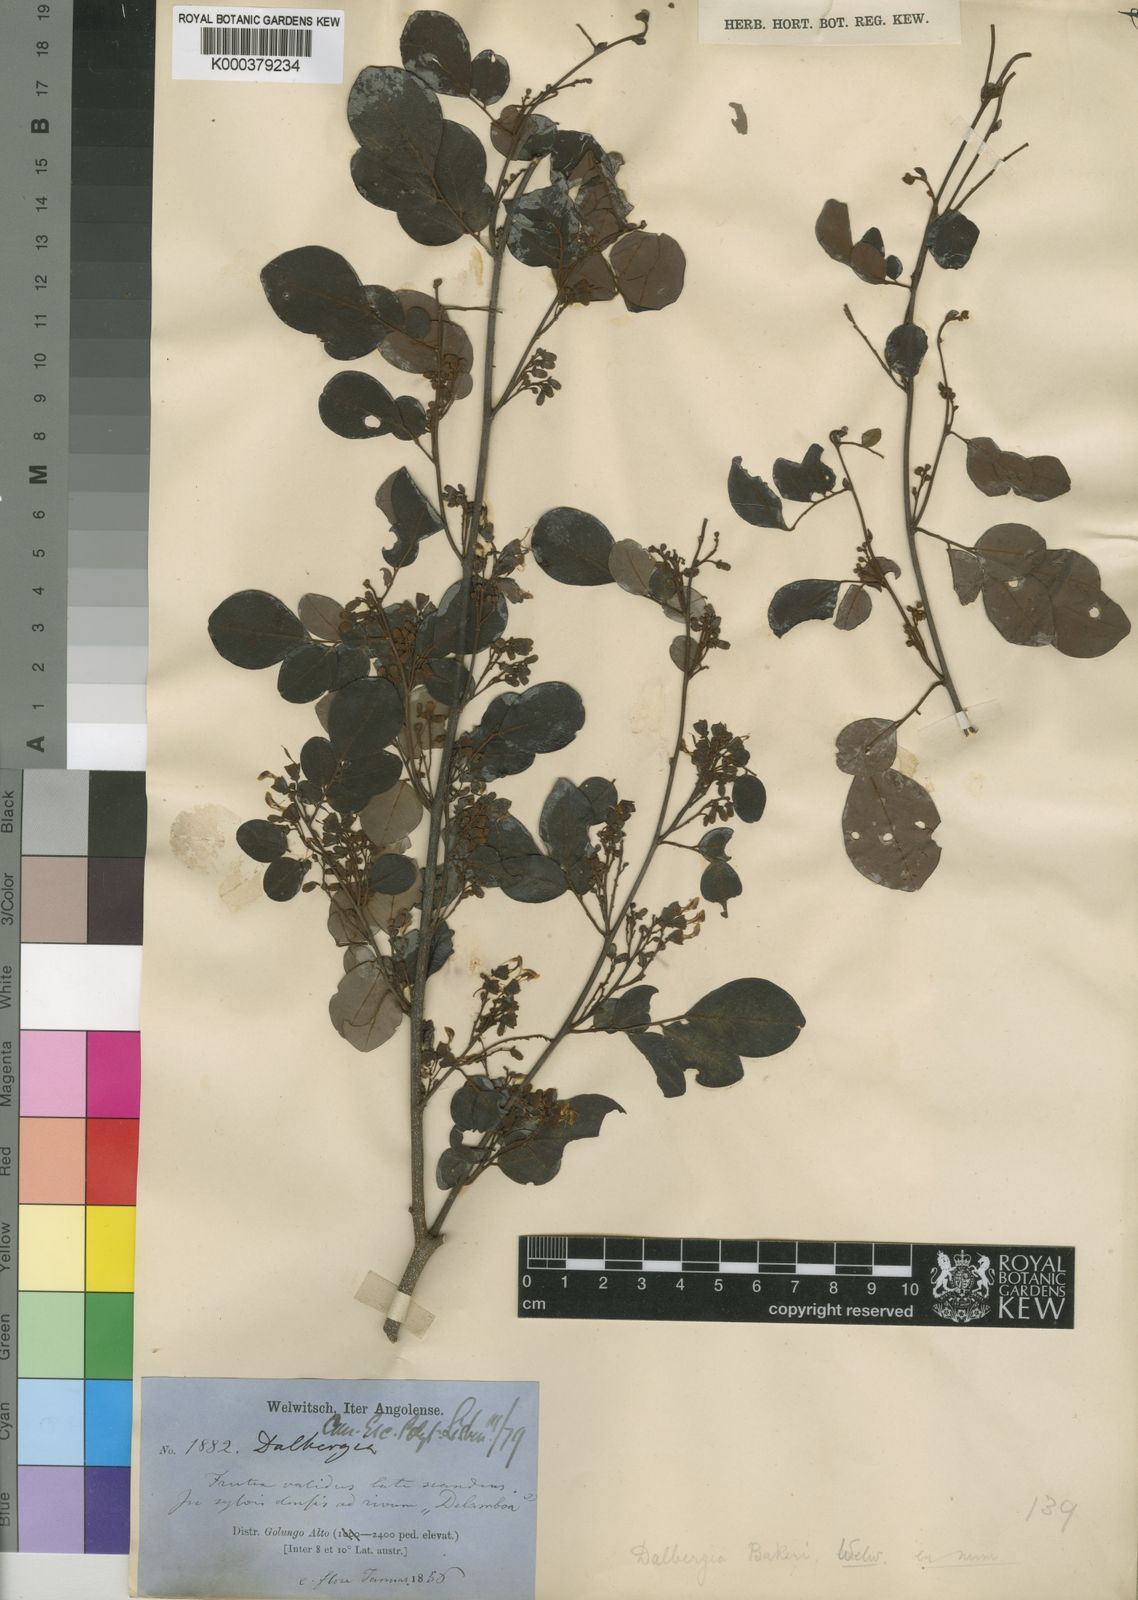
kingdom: Plantae
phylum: Tracheophyta
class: Magnoliopsida
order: Fabales
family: Fabaceae
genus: Dalbergia
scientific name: Dalbergia bakeri
